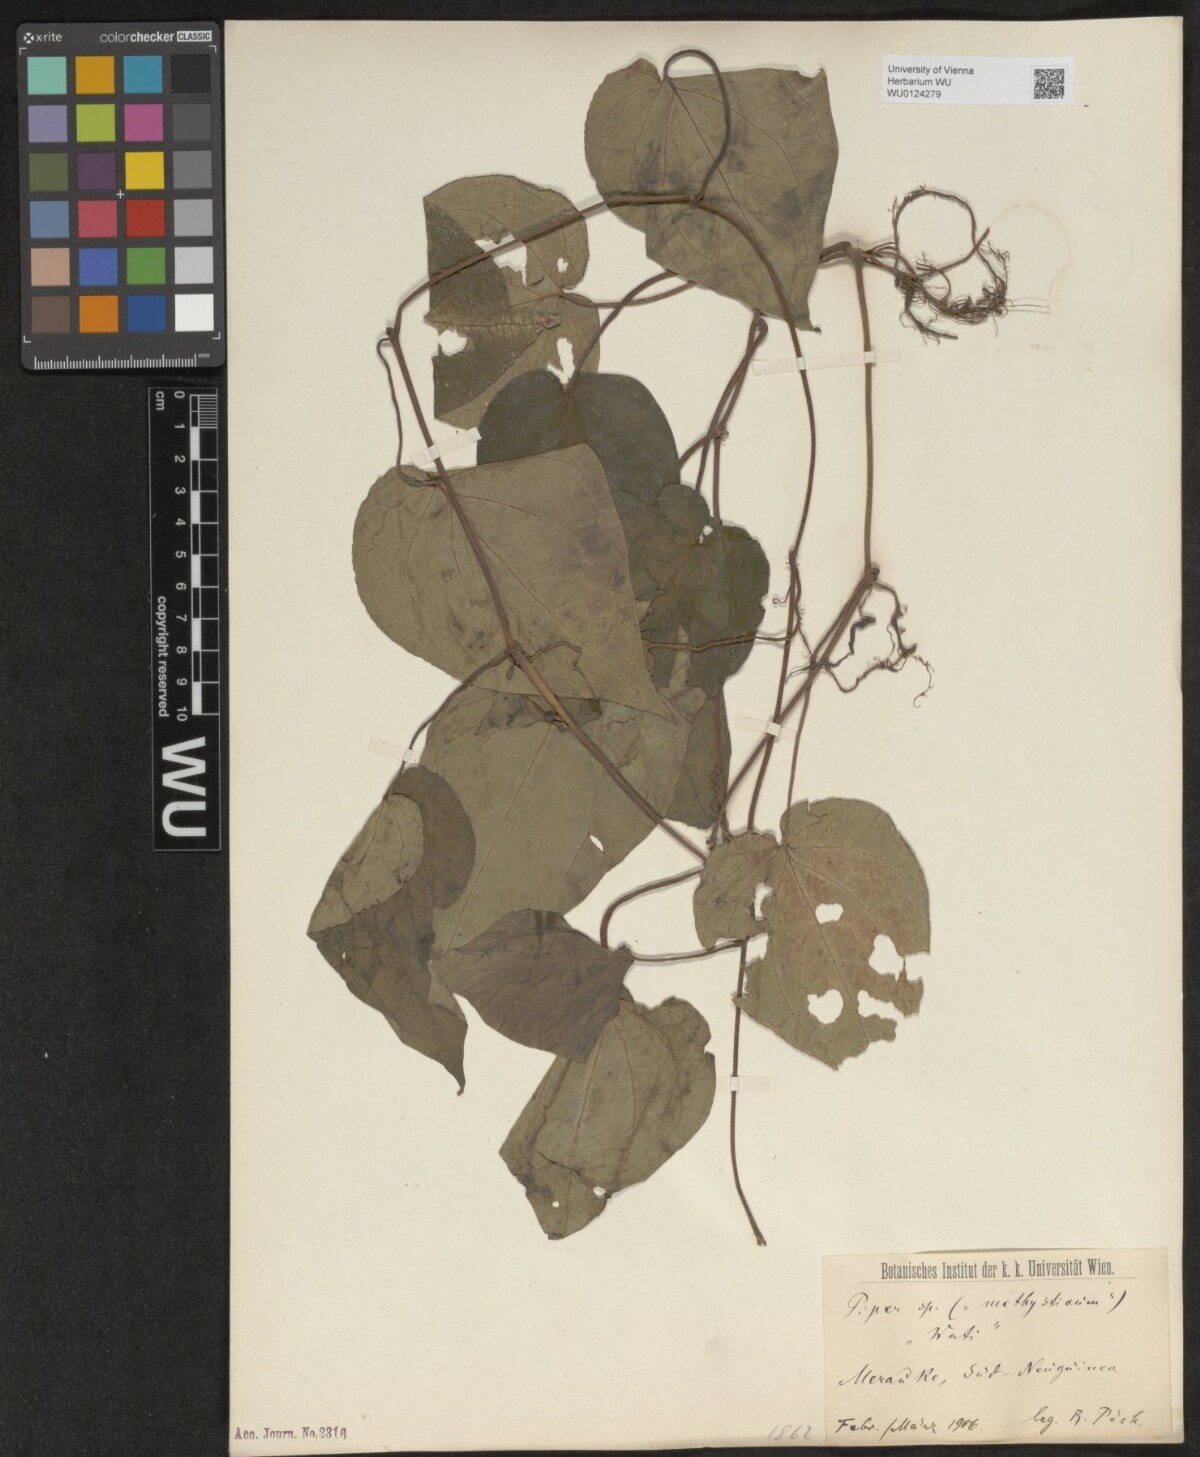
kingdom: Plantae
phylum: Tracheophyta
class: Magnoliopsida
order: Piperales
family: Piperaceae
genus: Piper
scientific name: Piper
